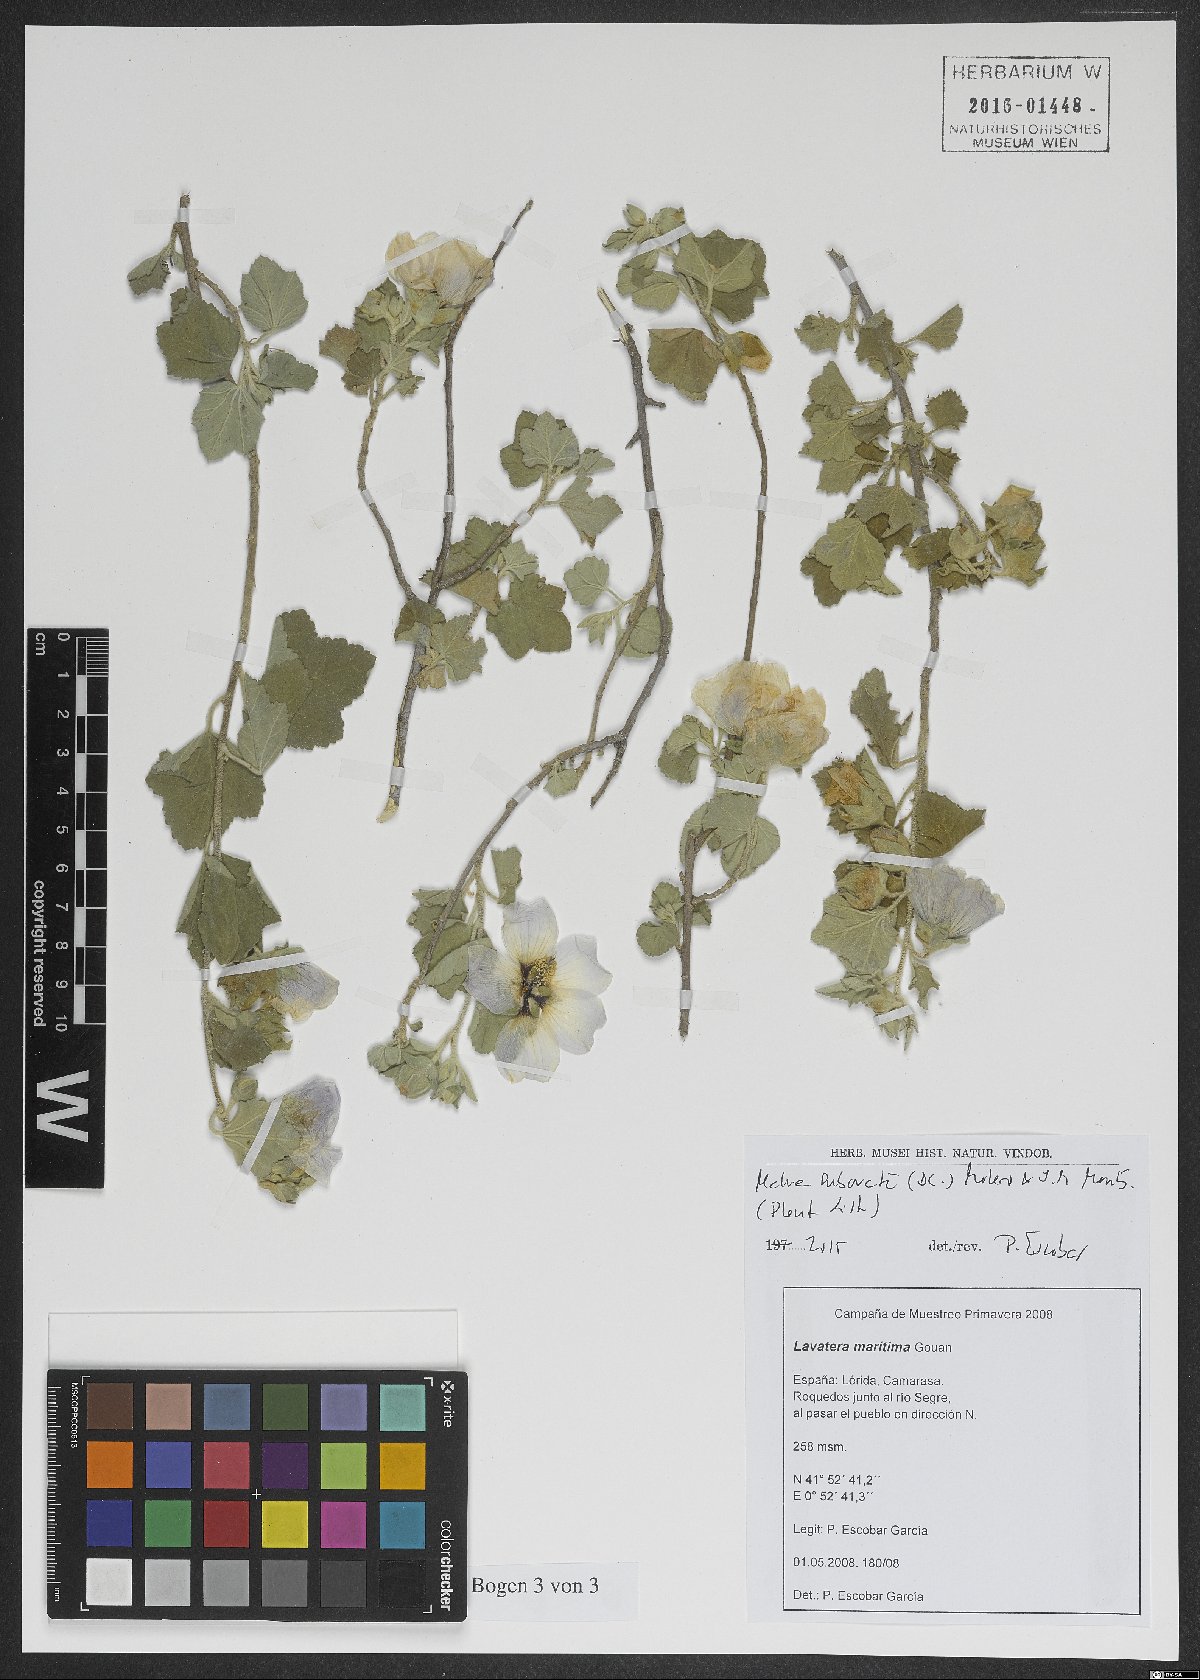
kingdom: Plantae
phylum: Tracheophyta
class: Magnoliopsida
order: Malvales
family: Malvaceae
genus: Malva
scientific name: Malva subovata
